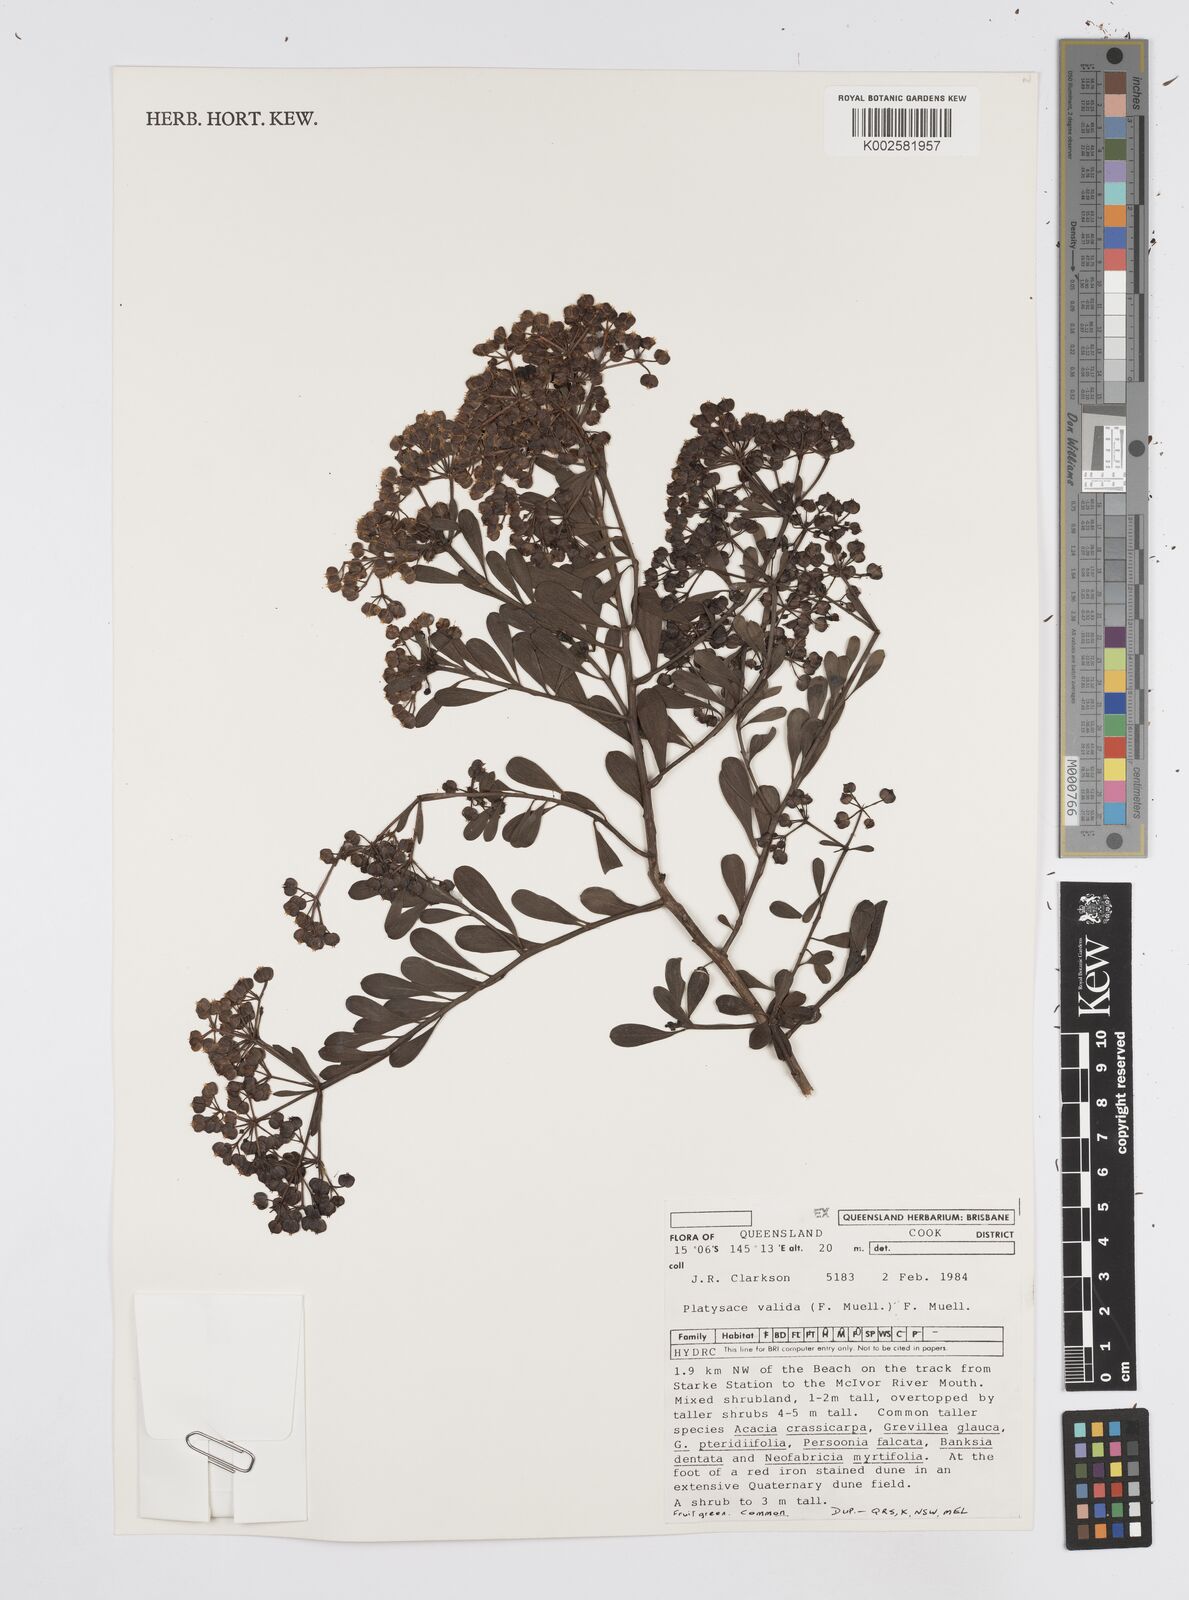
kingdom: Plantae
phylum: Tracheophyta
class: Magnoliopsida
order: Apiales
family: Apiaceae
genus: Platysace
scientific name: Platysace valida
